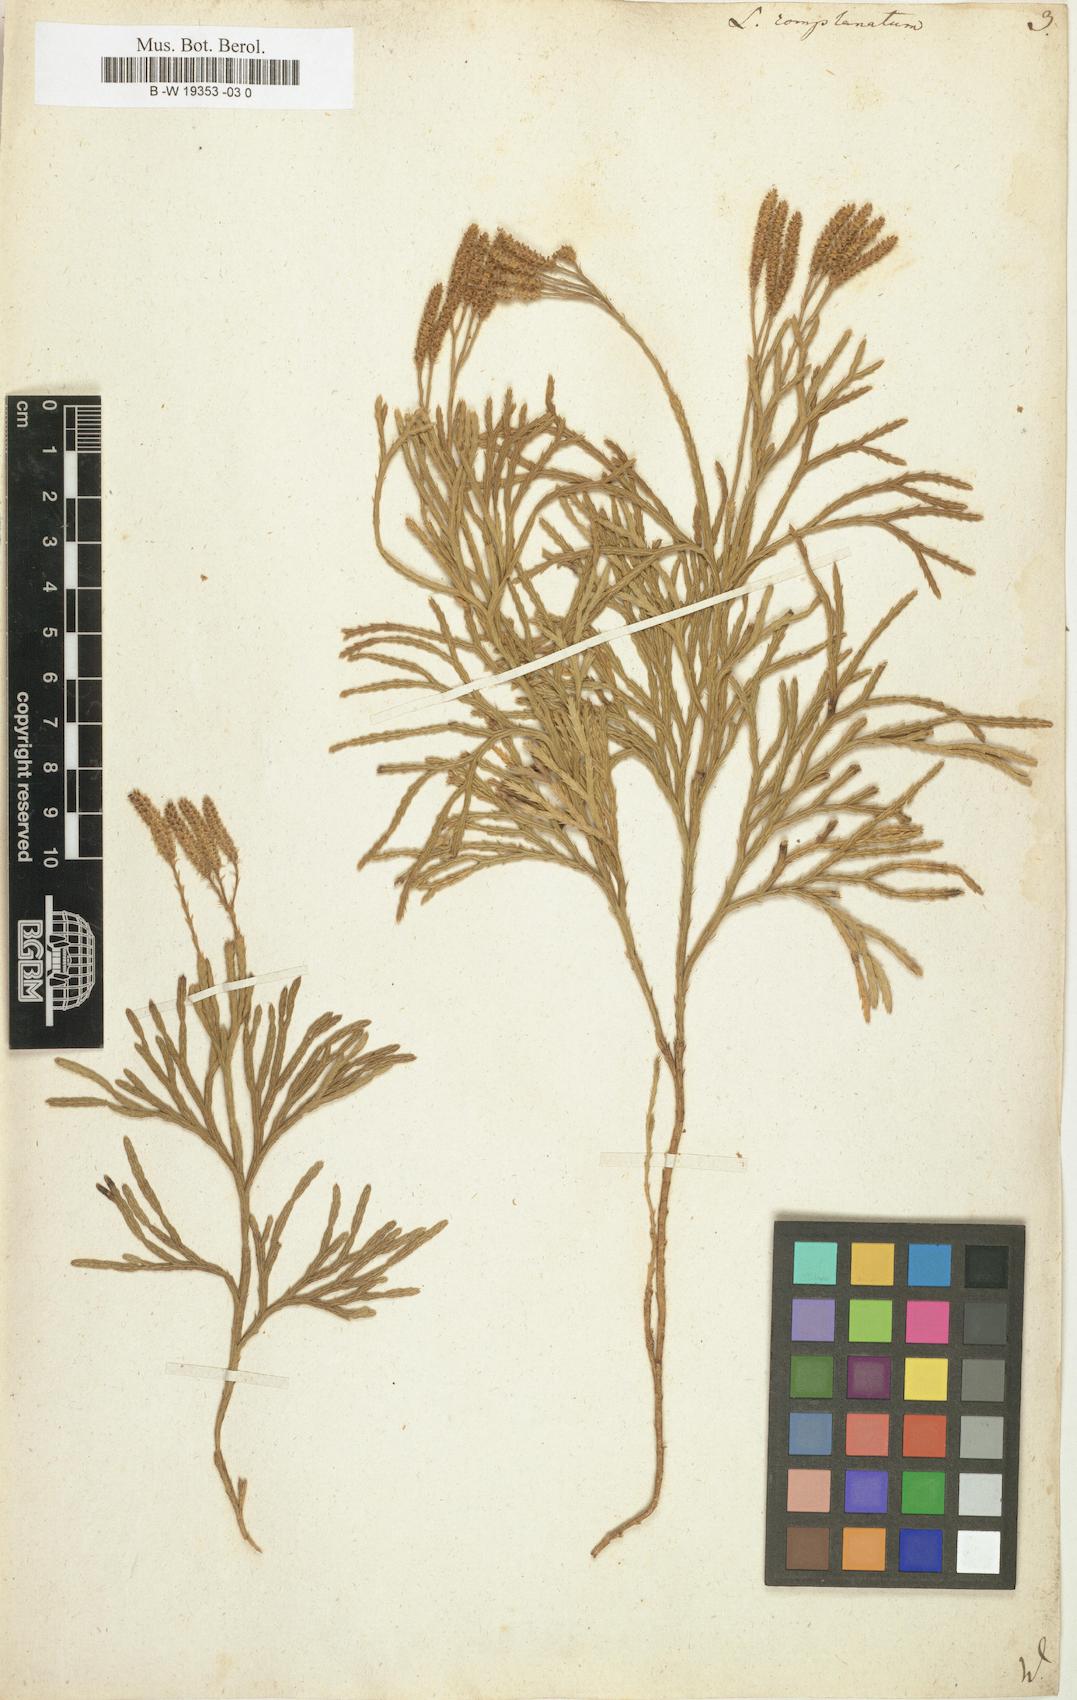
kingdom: Plantae
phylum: Tracheophyta
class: Lycopodiopsida
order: Lycopodiales
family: Lycopodiaceae
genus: Diphasiastrum
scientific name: Diphasiastrum
